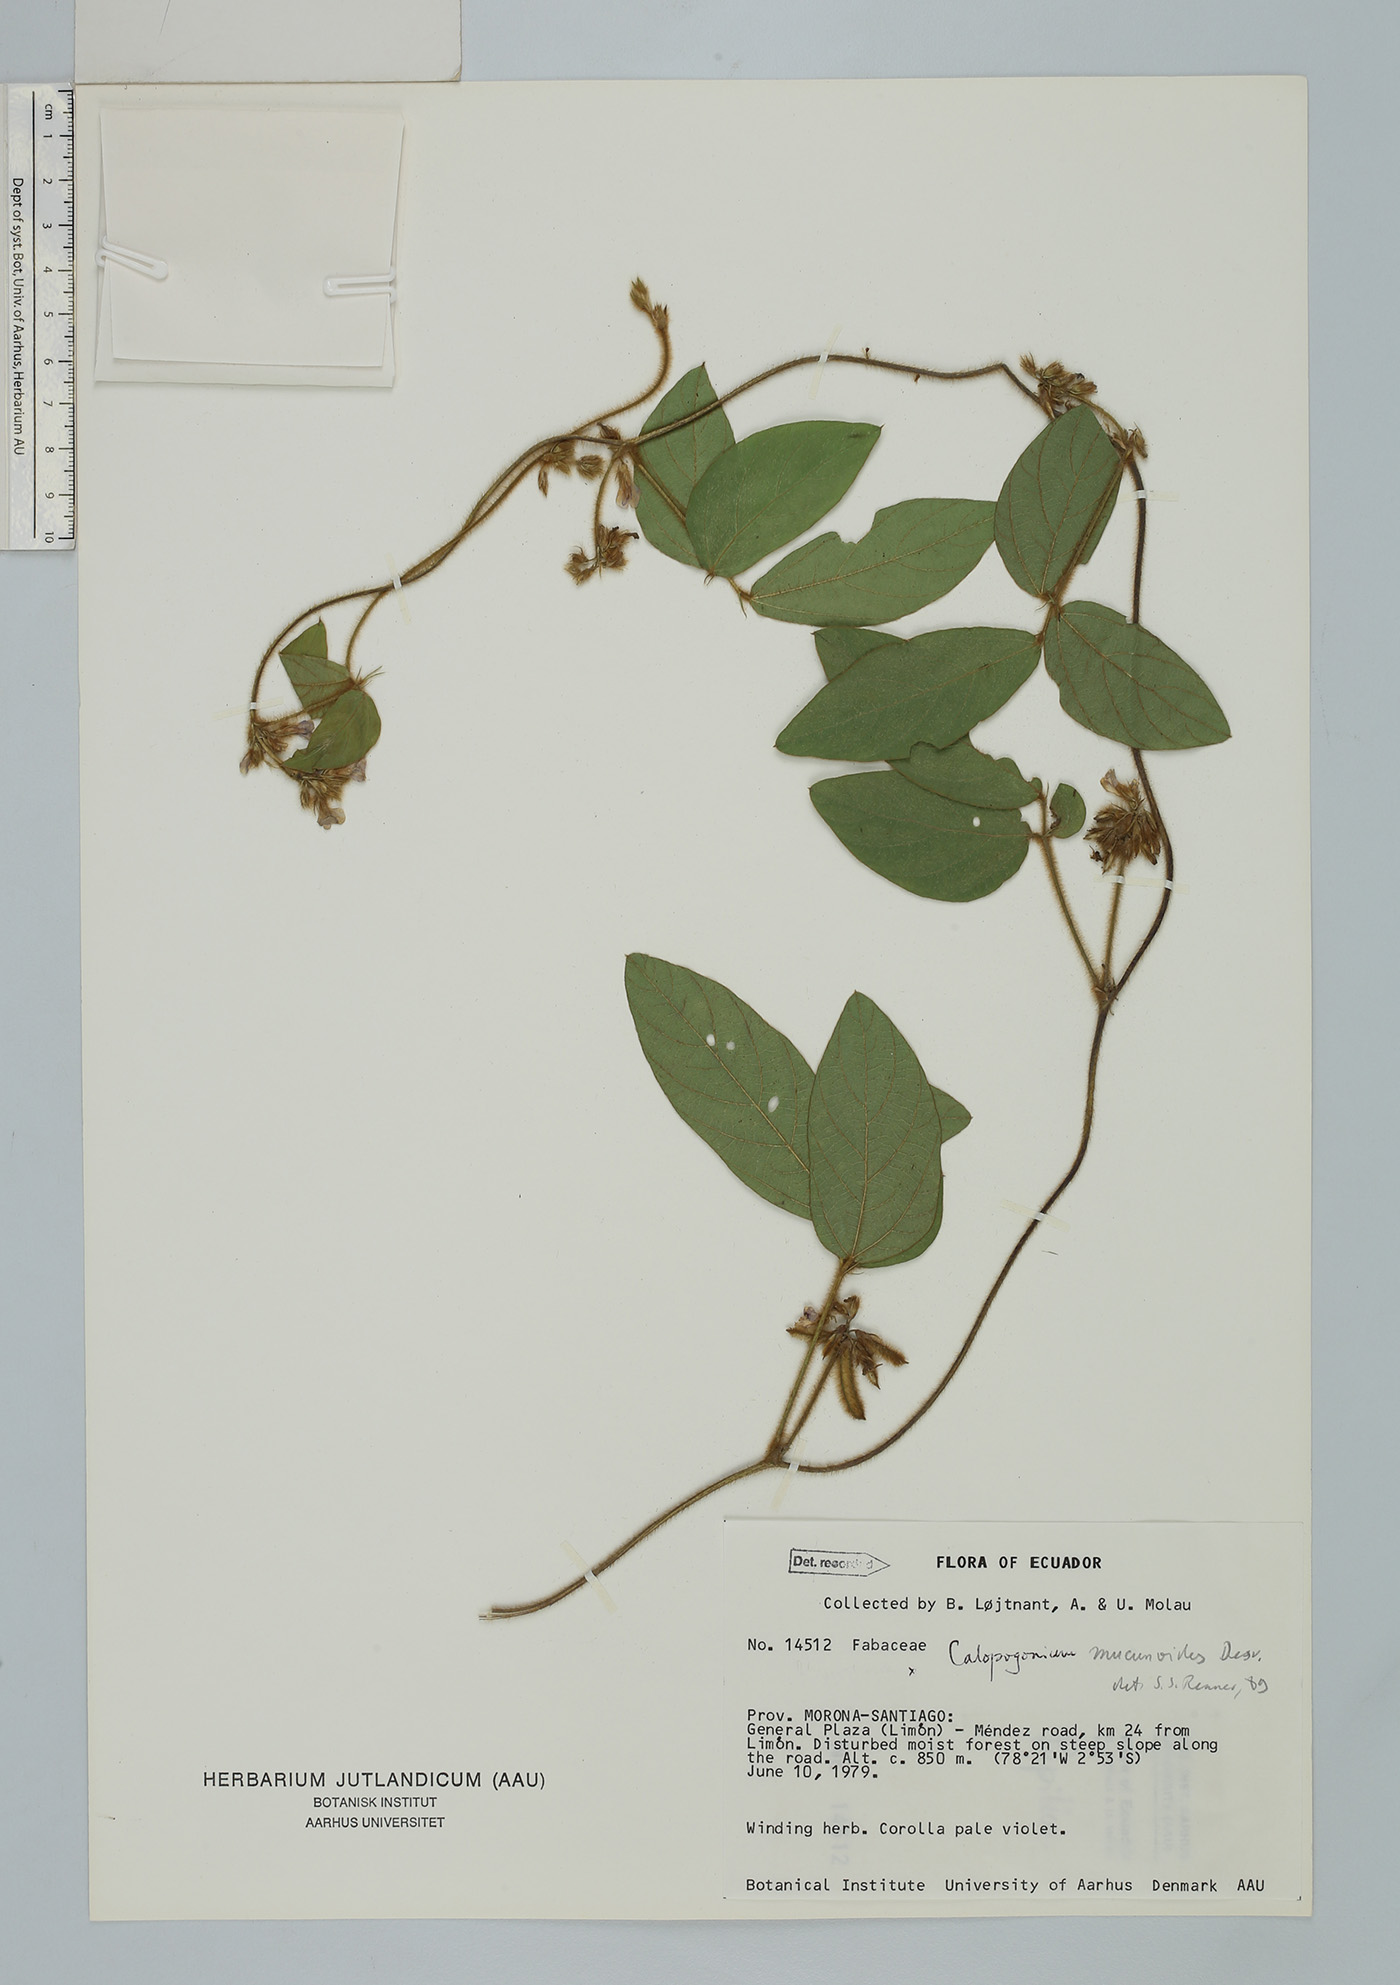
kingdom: Plantae
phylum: Tracheophyta
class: Magnoliopsida
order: Fabales
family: Fabaceae
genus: Calopogonium
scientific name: Calopogonium mucunoides
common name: Calopo
